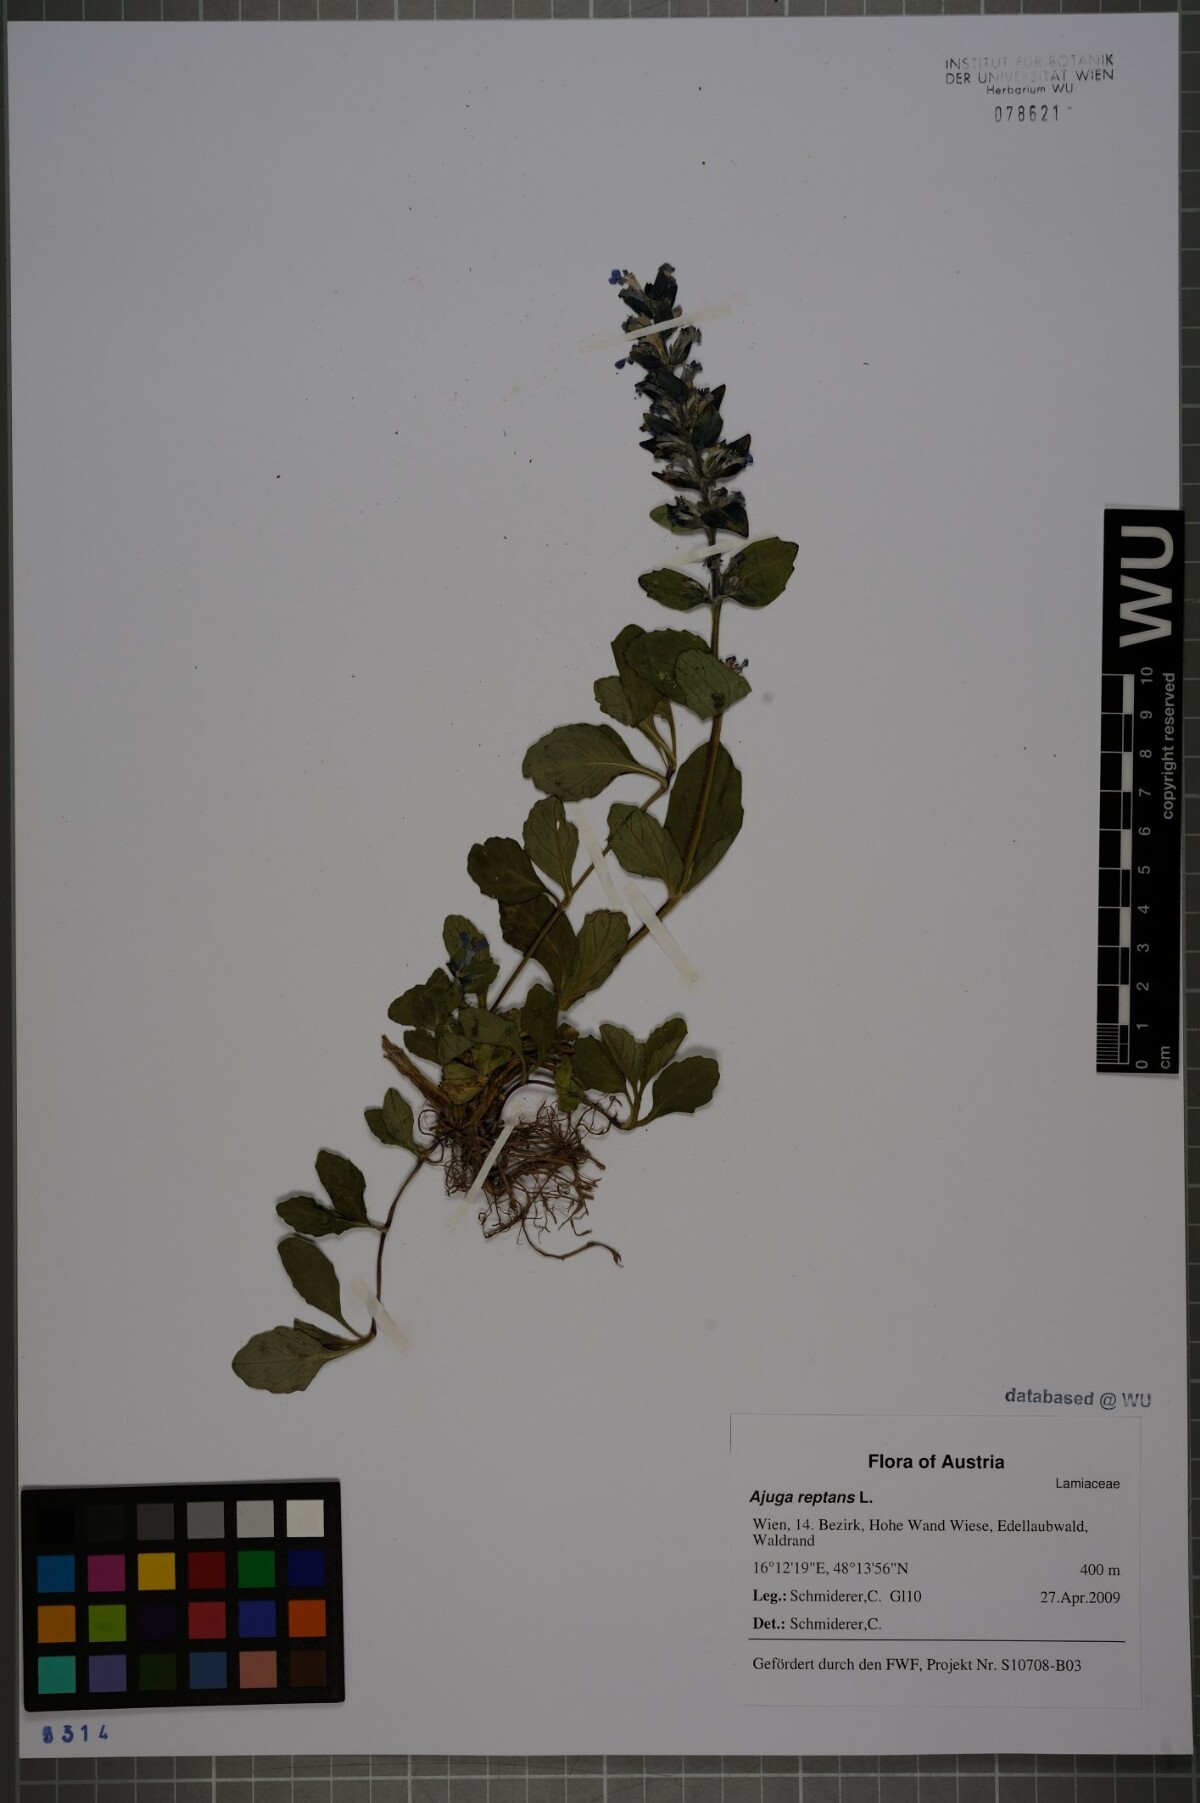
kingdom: Plantae
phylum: Tracheophyta
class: Magnoliopsida
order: Lamiales
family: Lamiaceae
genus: Ajuga
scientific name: Ajuga reptans
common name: Bugle
